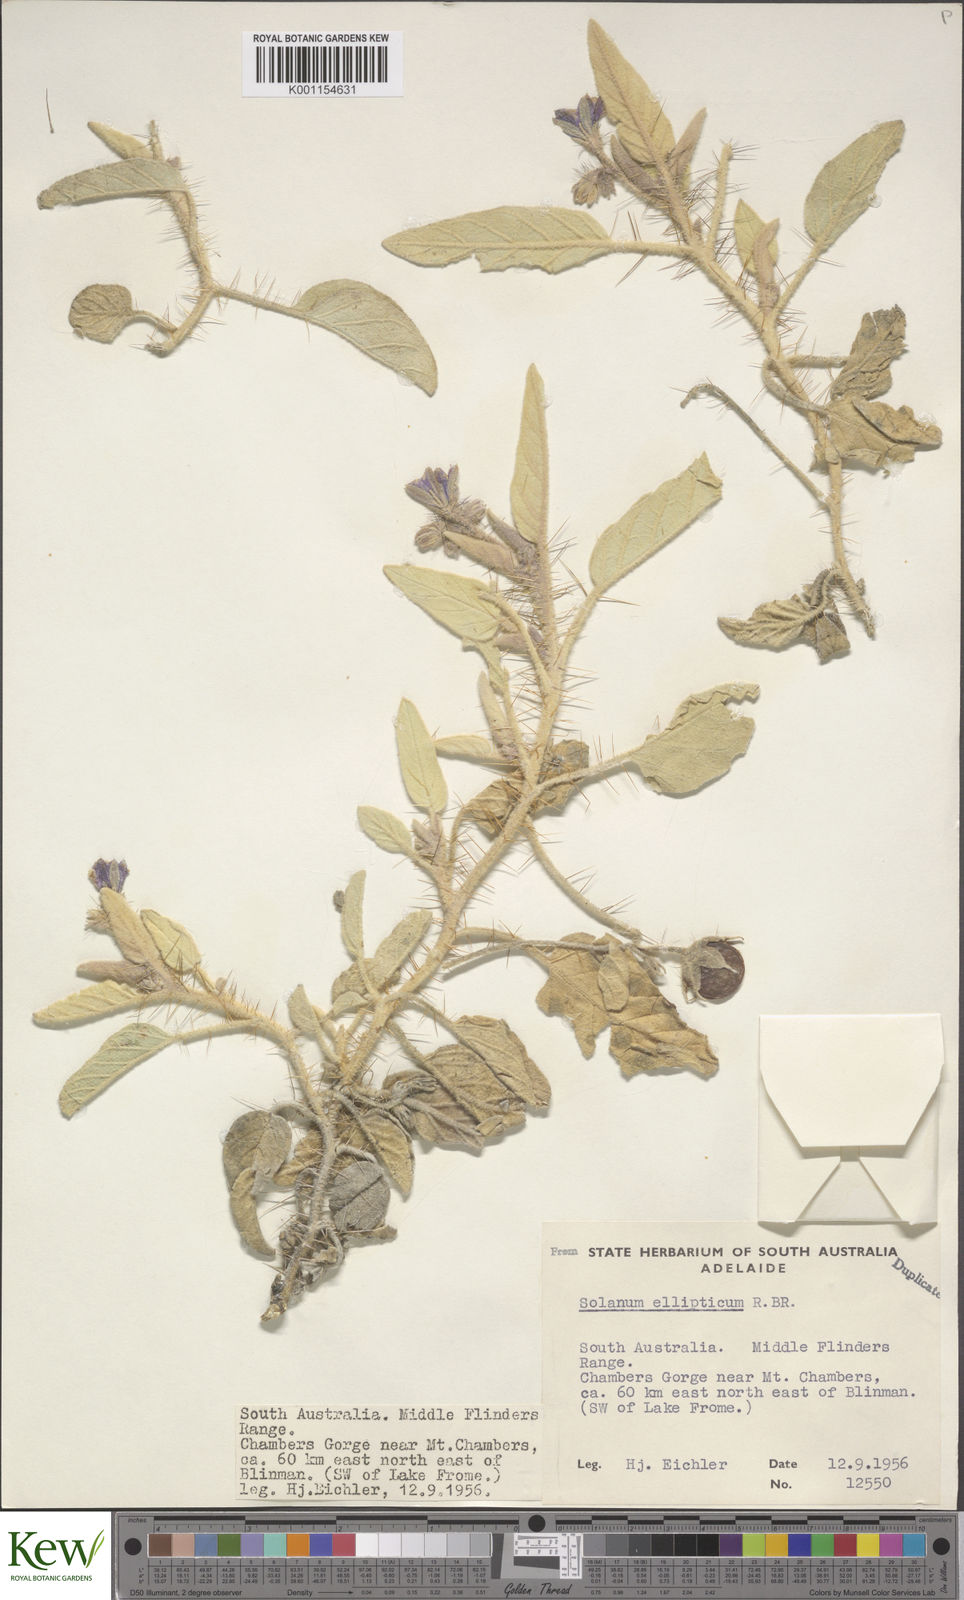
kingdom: Plantae
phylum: Tracheophyta
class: Magnoliopsida
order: Solanales
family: Solanaceae
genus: Solanum
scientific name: Solanum ellipticum
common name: Potato-bush
